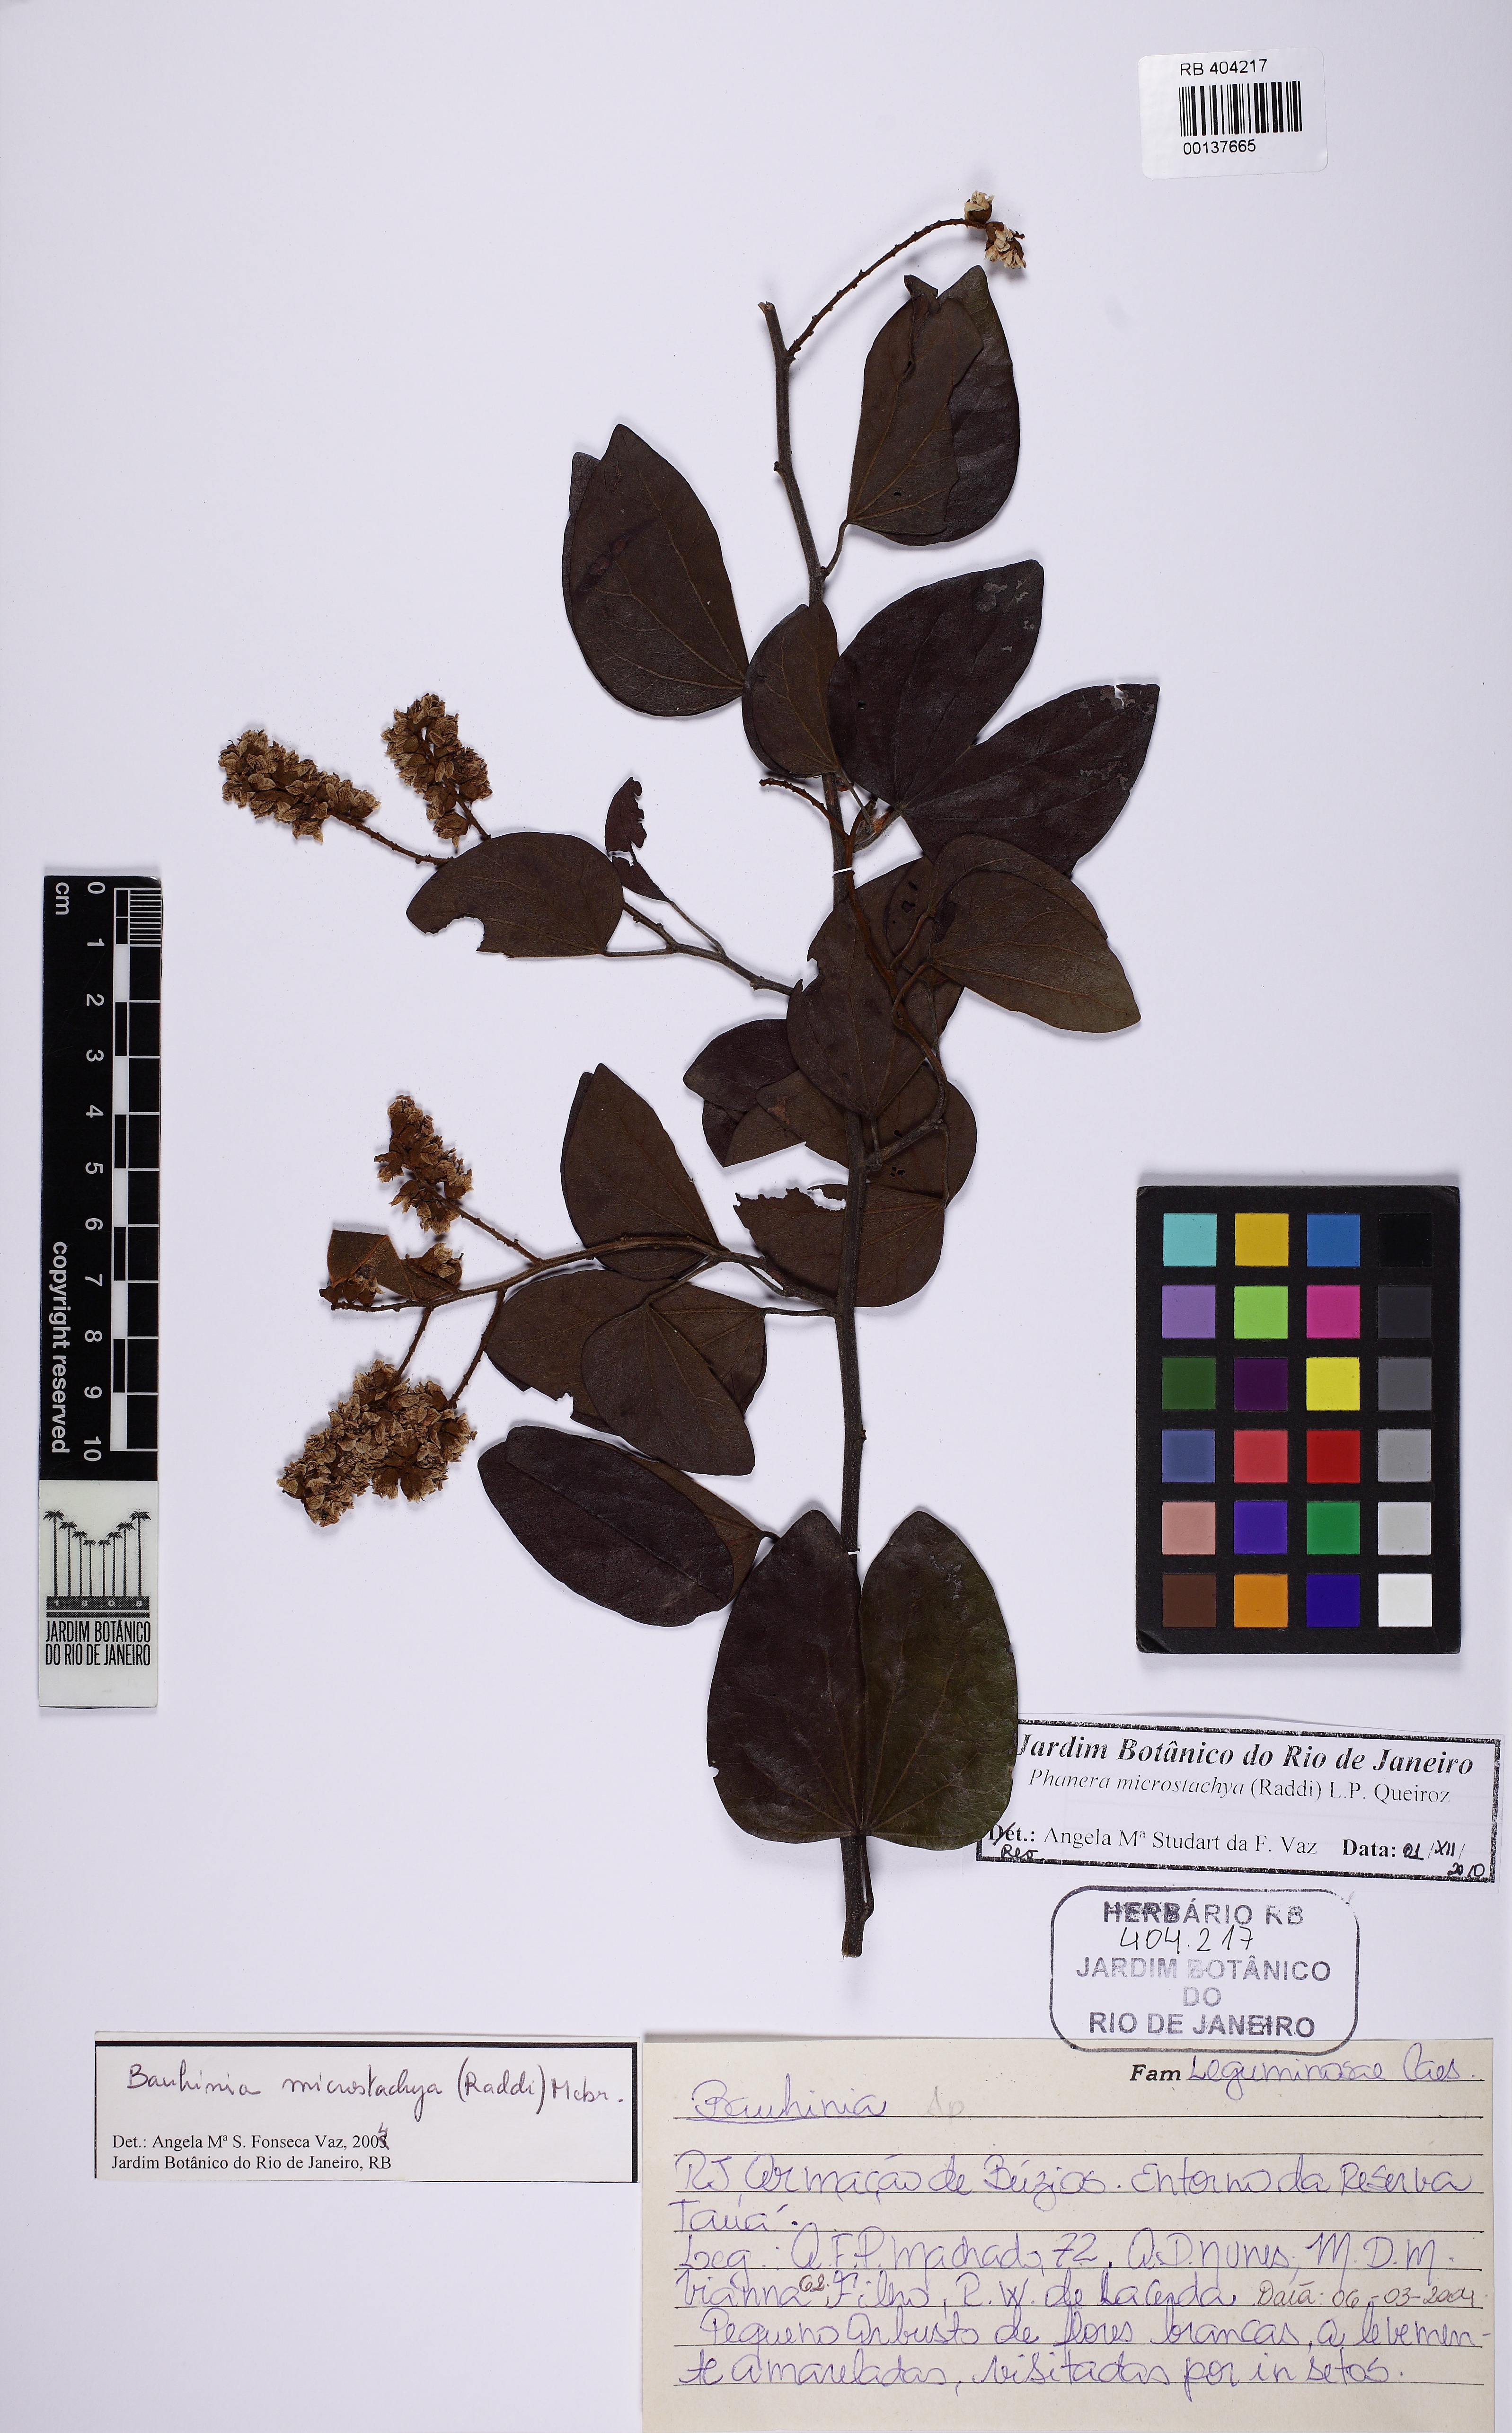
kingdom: Plantae
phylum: Tracheophyta
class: Magnoliopsida
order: Fabales
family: Fabaceae
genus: Schnella
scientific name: Schnella microstachya
